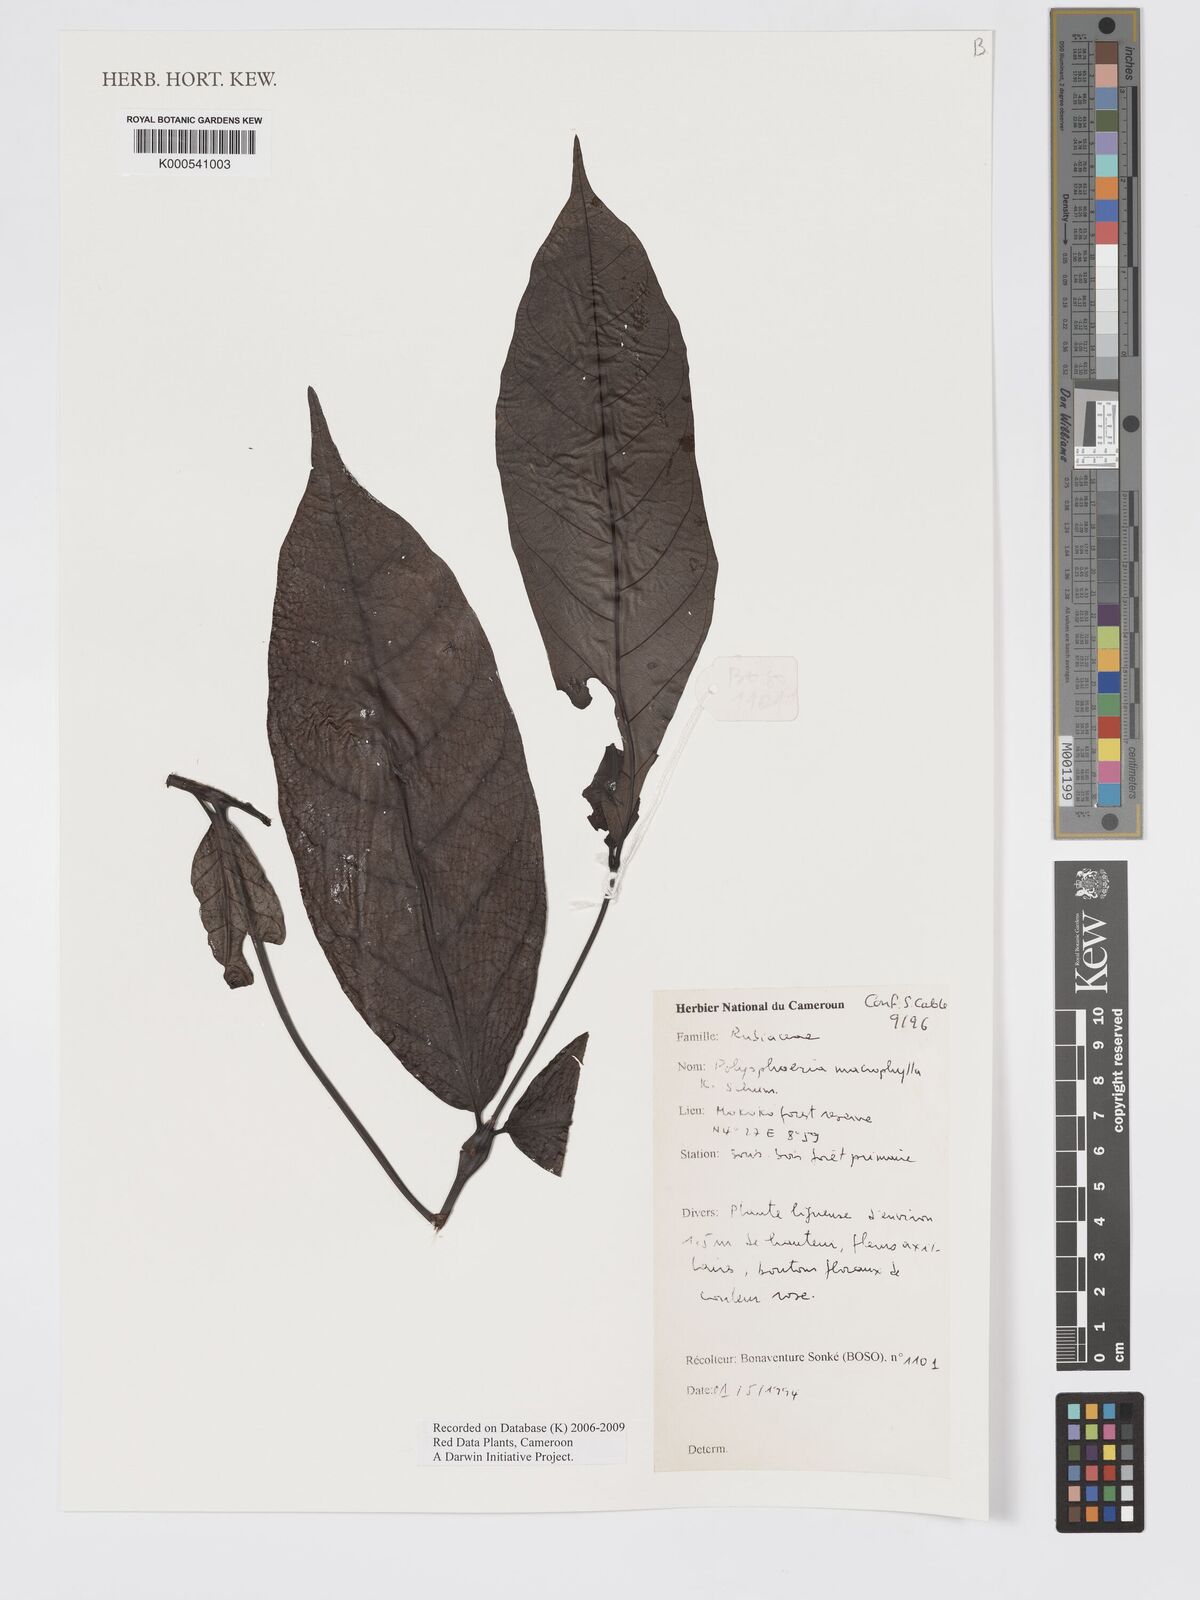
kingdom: Plantae
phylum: Tracheophyta
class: Magnoliopsida
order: Gentianales
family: Rubiaceae
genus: Polysphaeria
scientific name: Polysphaeria macrophylla
